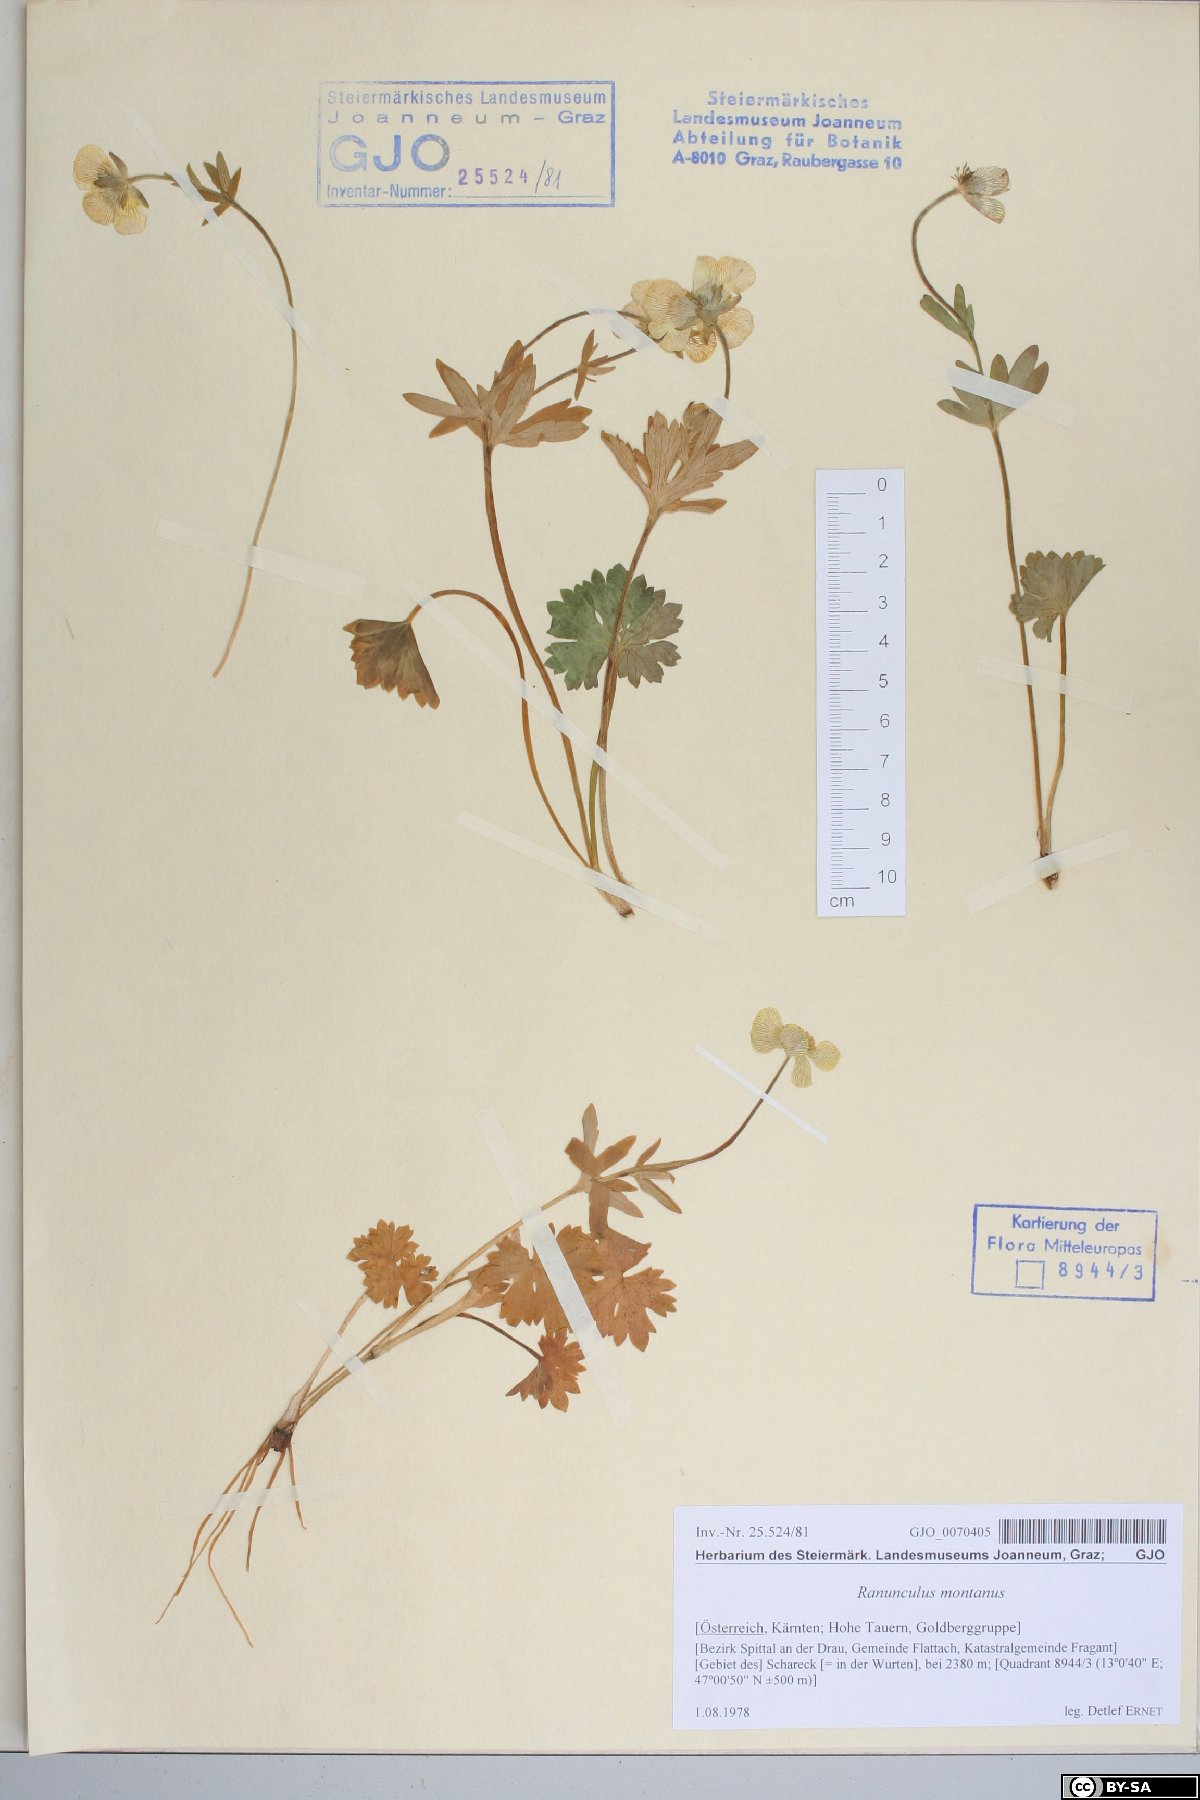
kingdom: Plantae
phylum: Tracheophyta
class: Magnoliopsida
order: Ranunculales
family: Ranunculaceae
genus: Ranunculus
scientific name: Ranunculus montanus
